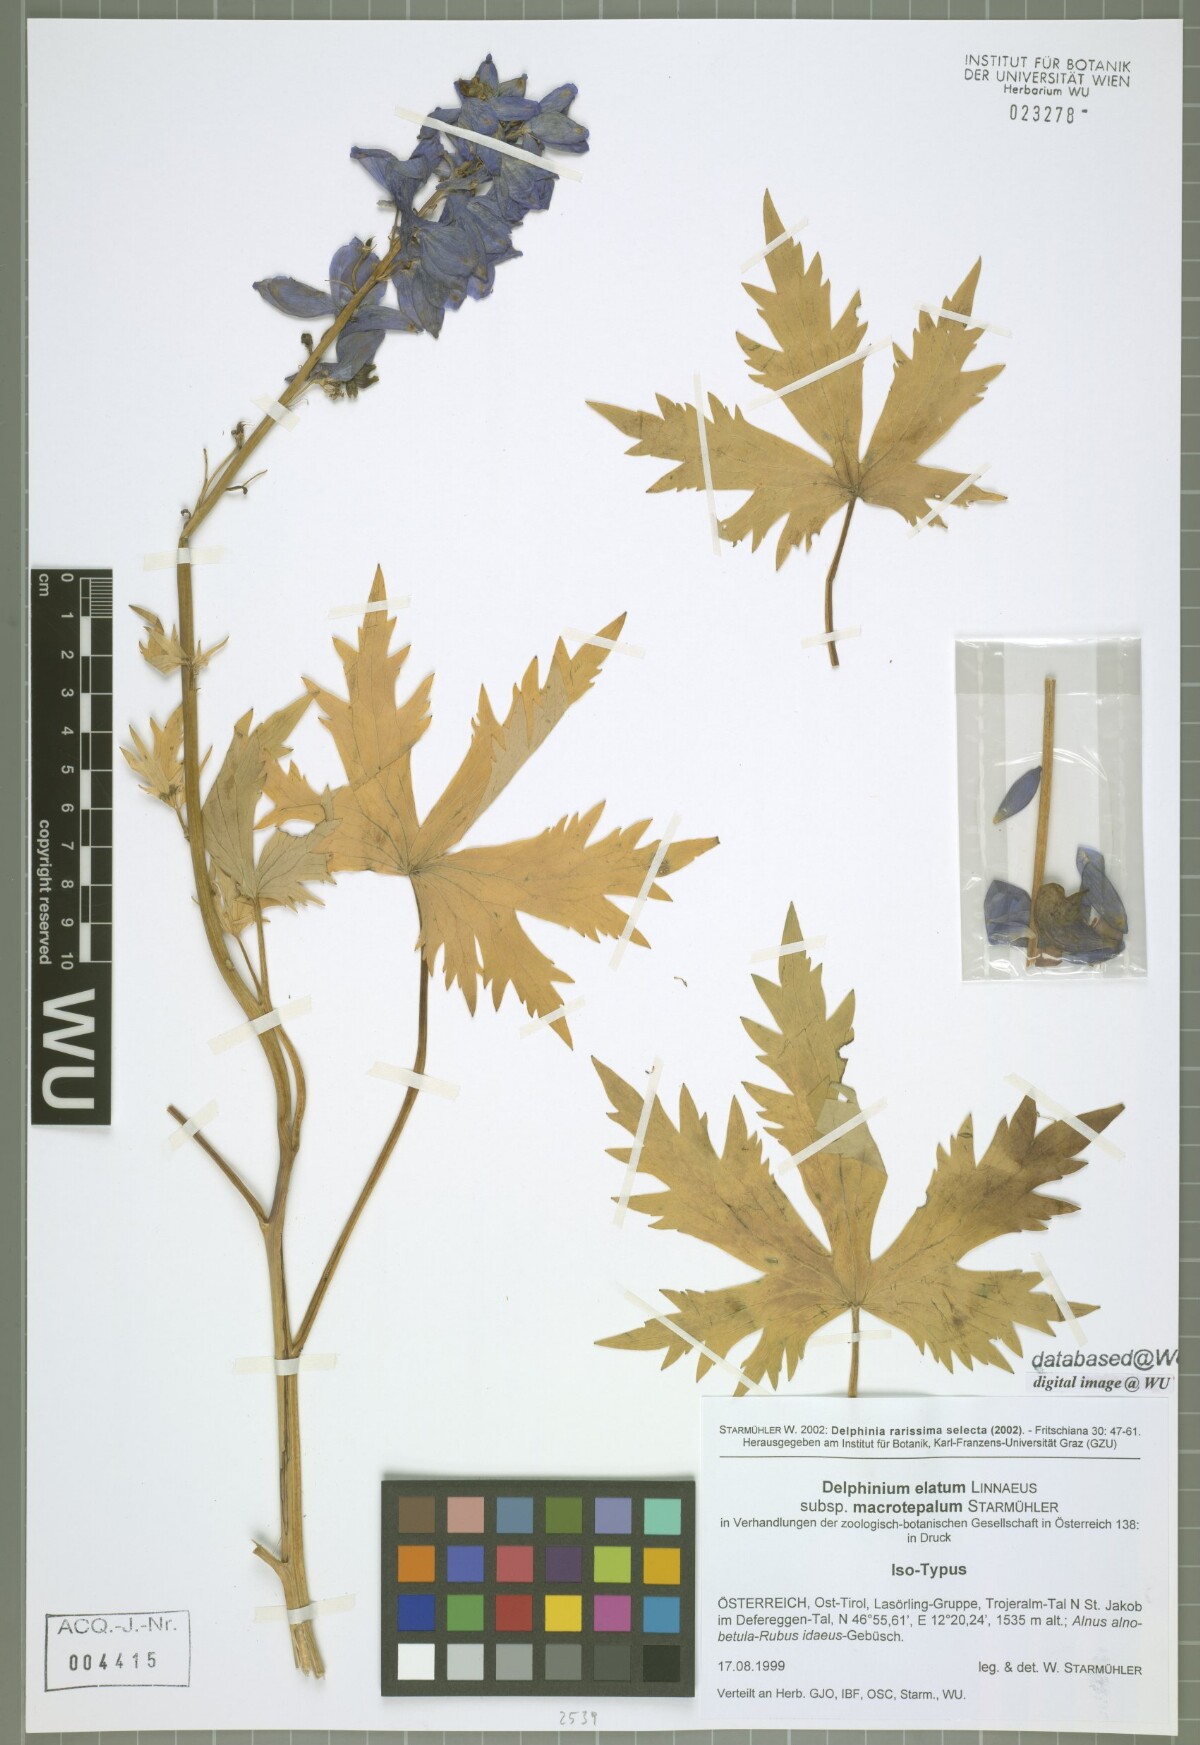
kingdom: Plantae
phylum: Tracheophyta
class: Magnoliopsida
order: Ranunculales
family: Ranunculaceae
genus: Delphinium
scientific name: Delphinium elatum
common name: Candle larkspur
